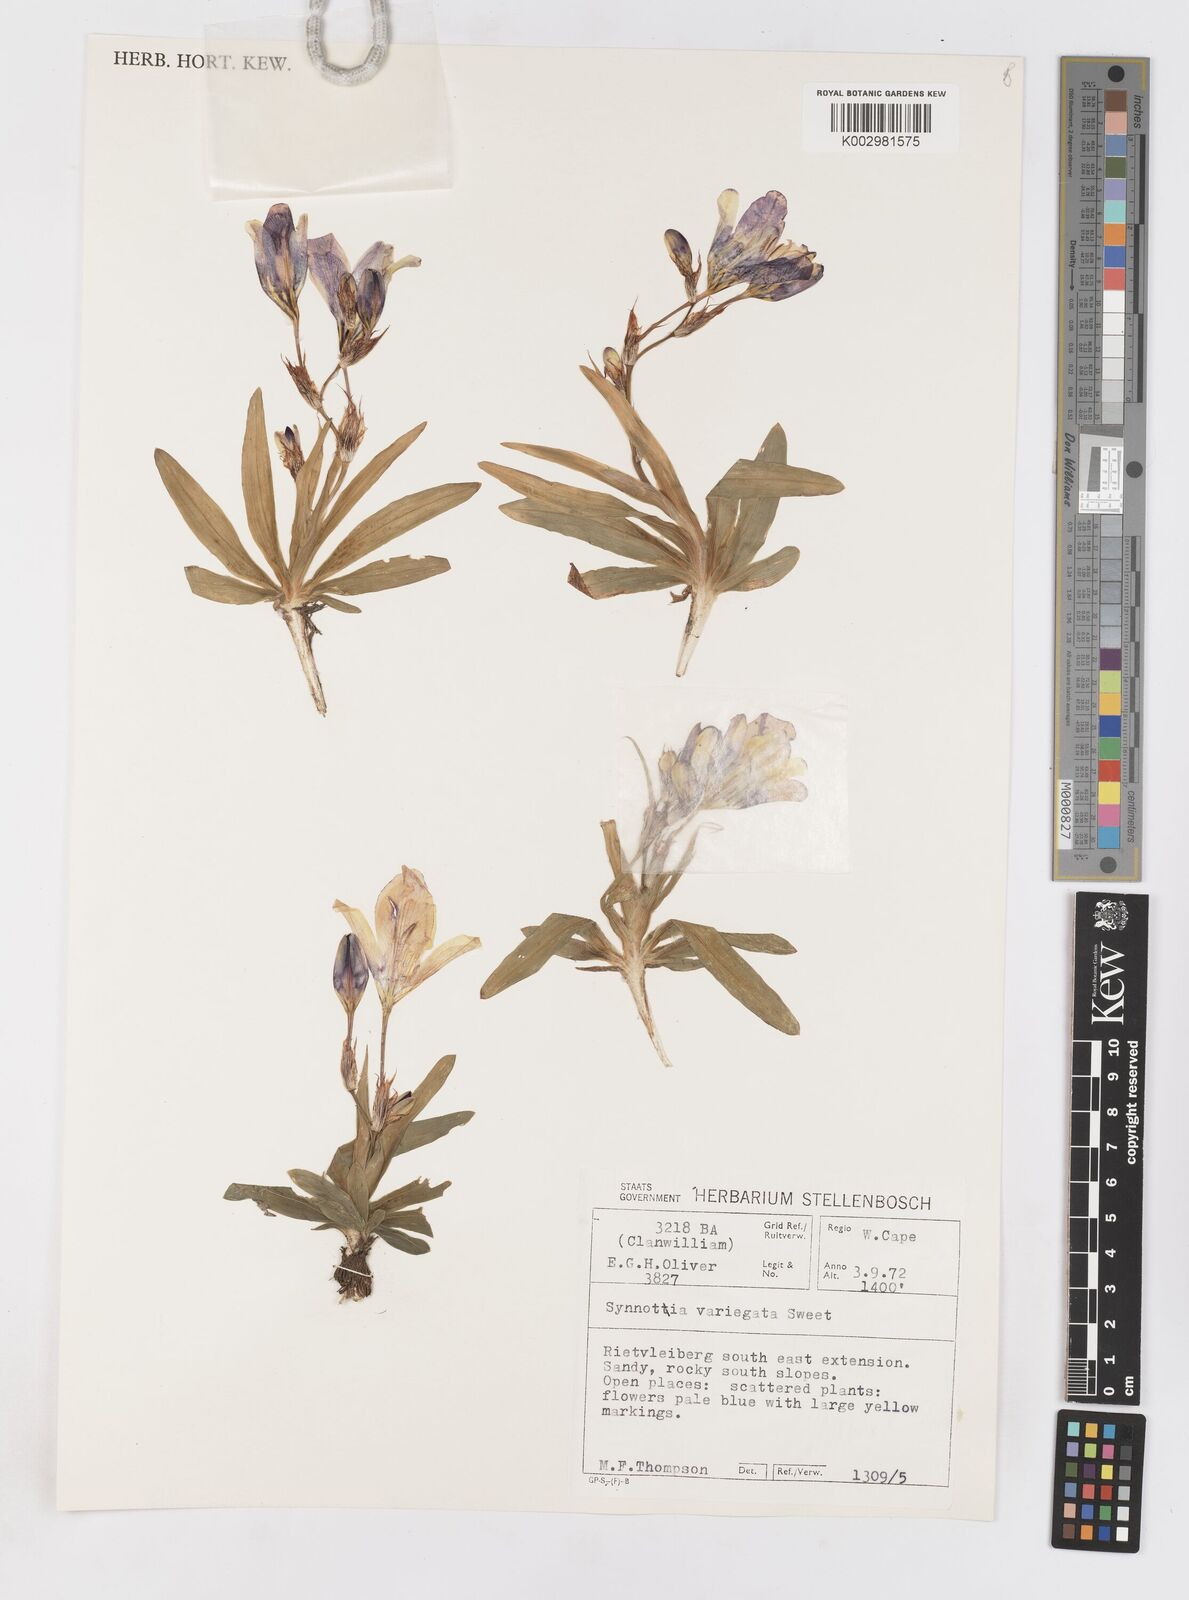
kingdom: Plantae
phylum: Tracheophyta
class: Liliopsida
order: Asparagales
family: Iridaceae
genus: Sparaxis
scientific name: Sparaxis variegata
